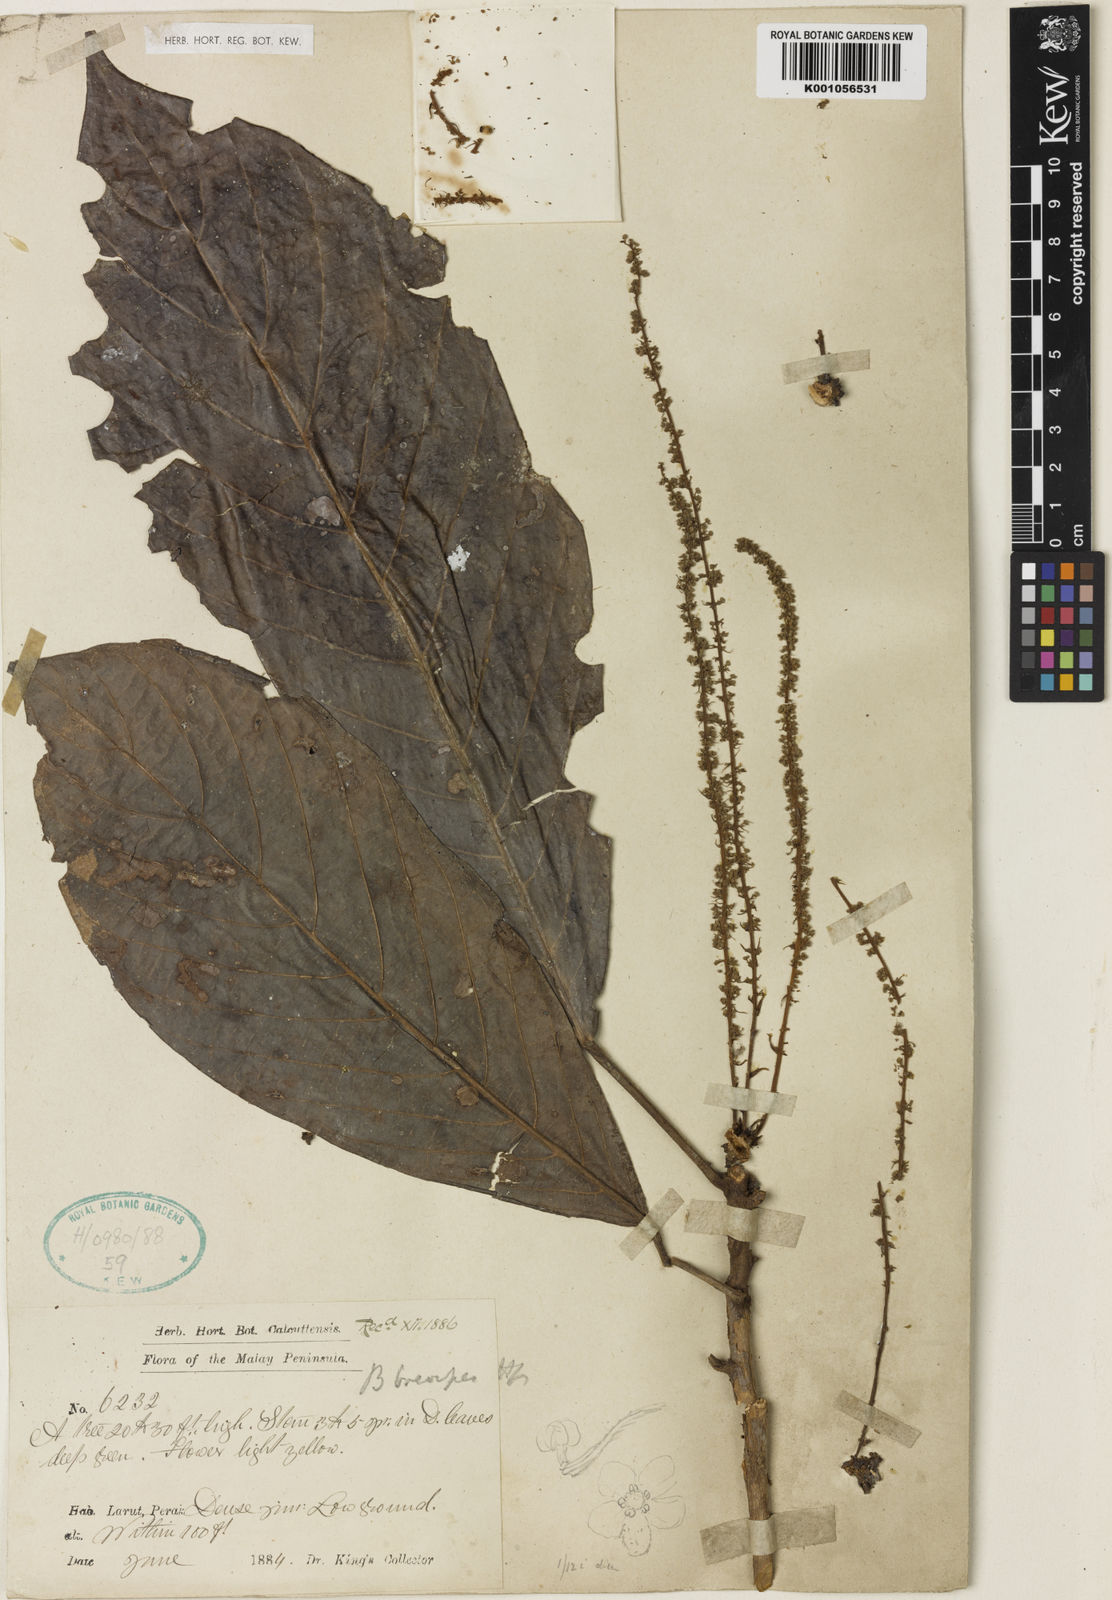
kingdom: Plantae
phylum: Tracheophyta
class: Magnoliopsida
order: Malpighiales
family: Phyllanthaceae
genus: Baccaurea
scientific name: Baccaurea brevipes
